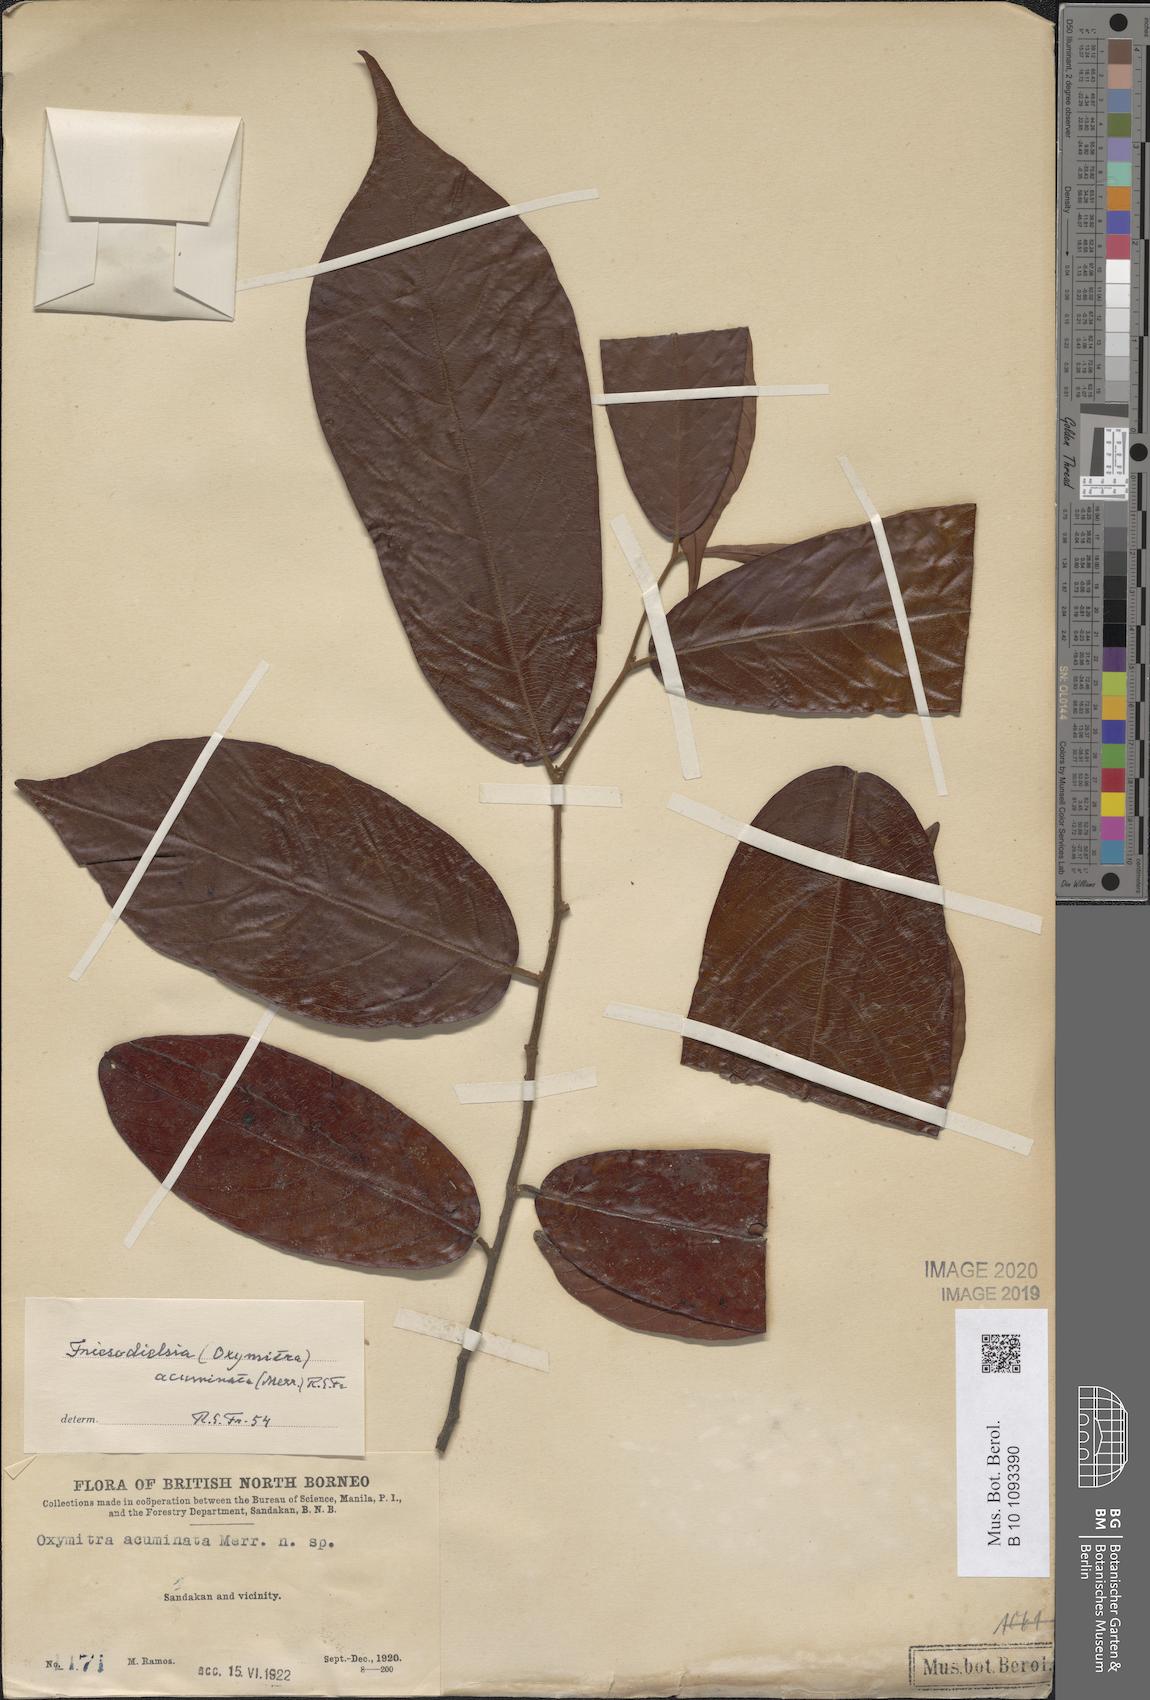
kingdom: Plantae
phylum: Tracheophyta
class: Magnoliopsida
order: Magnoliales
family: Annonaceae
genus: Friesodielsia
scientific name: Friesodielsia acuminata
